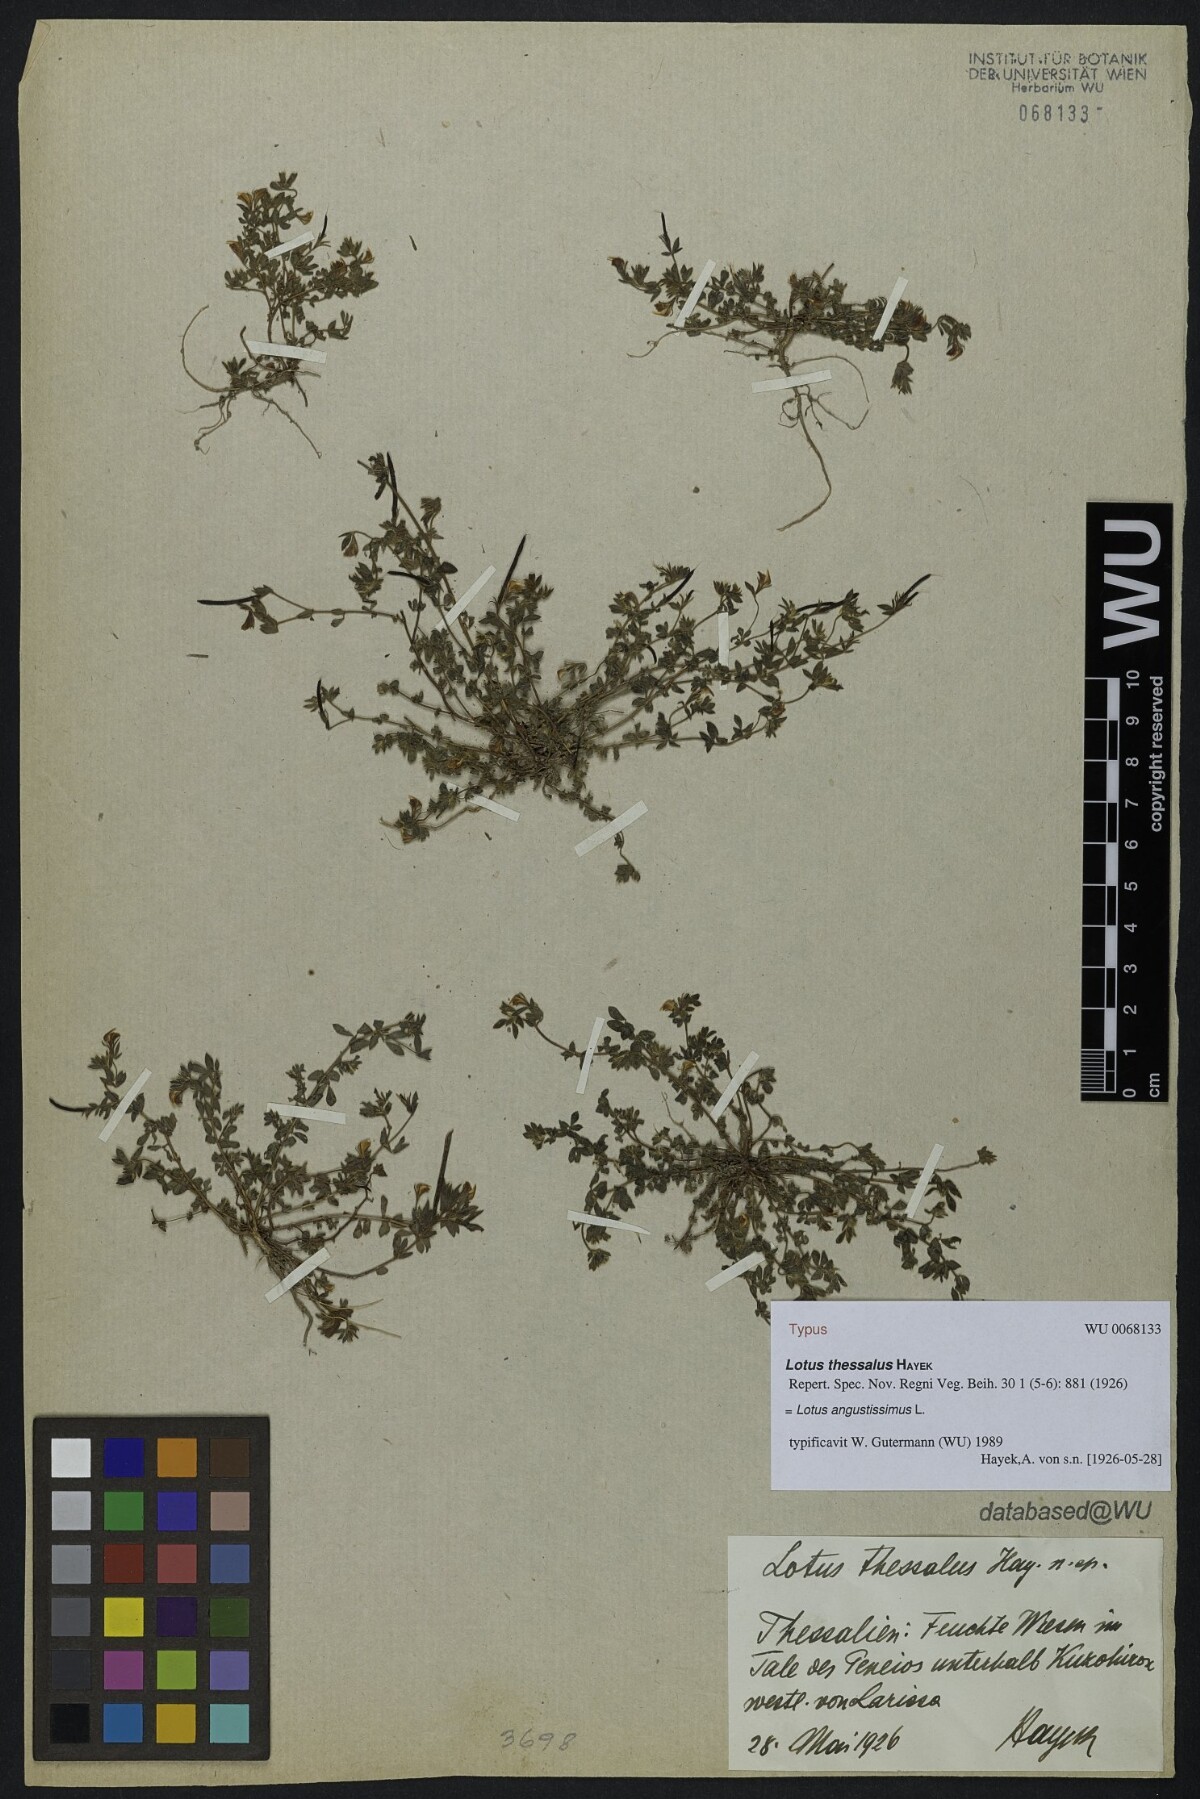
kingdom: Plantae
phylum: Tracheophyta
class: Magnoliopsida
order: Fabales
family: Fabaceae
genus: Lotus
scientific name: Lotus angustissimus
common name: Slender bird's-foot trefoil
